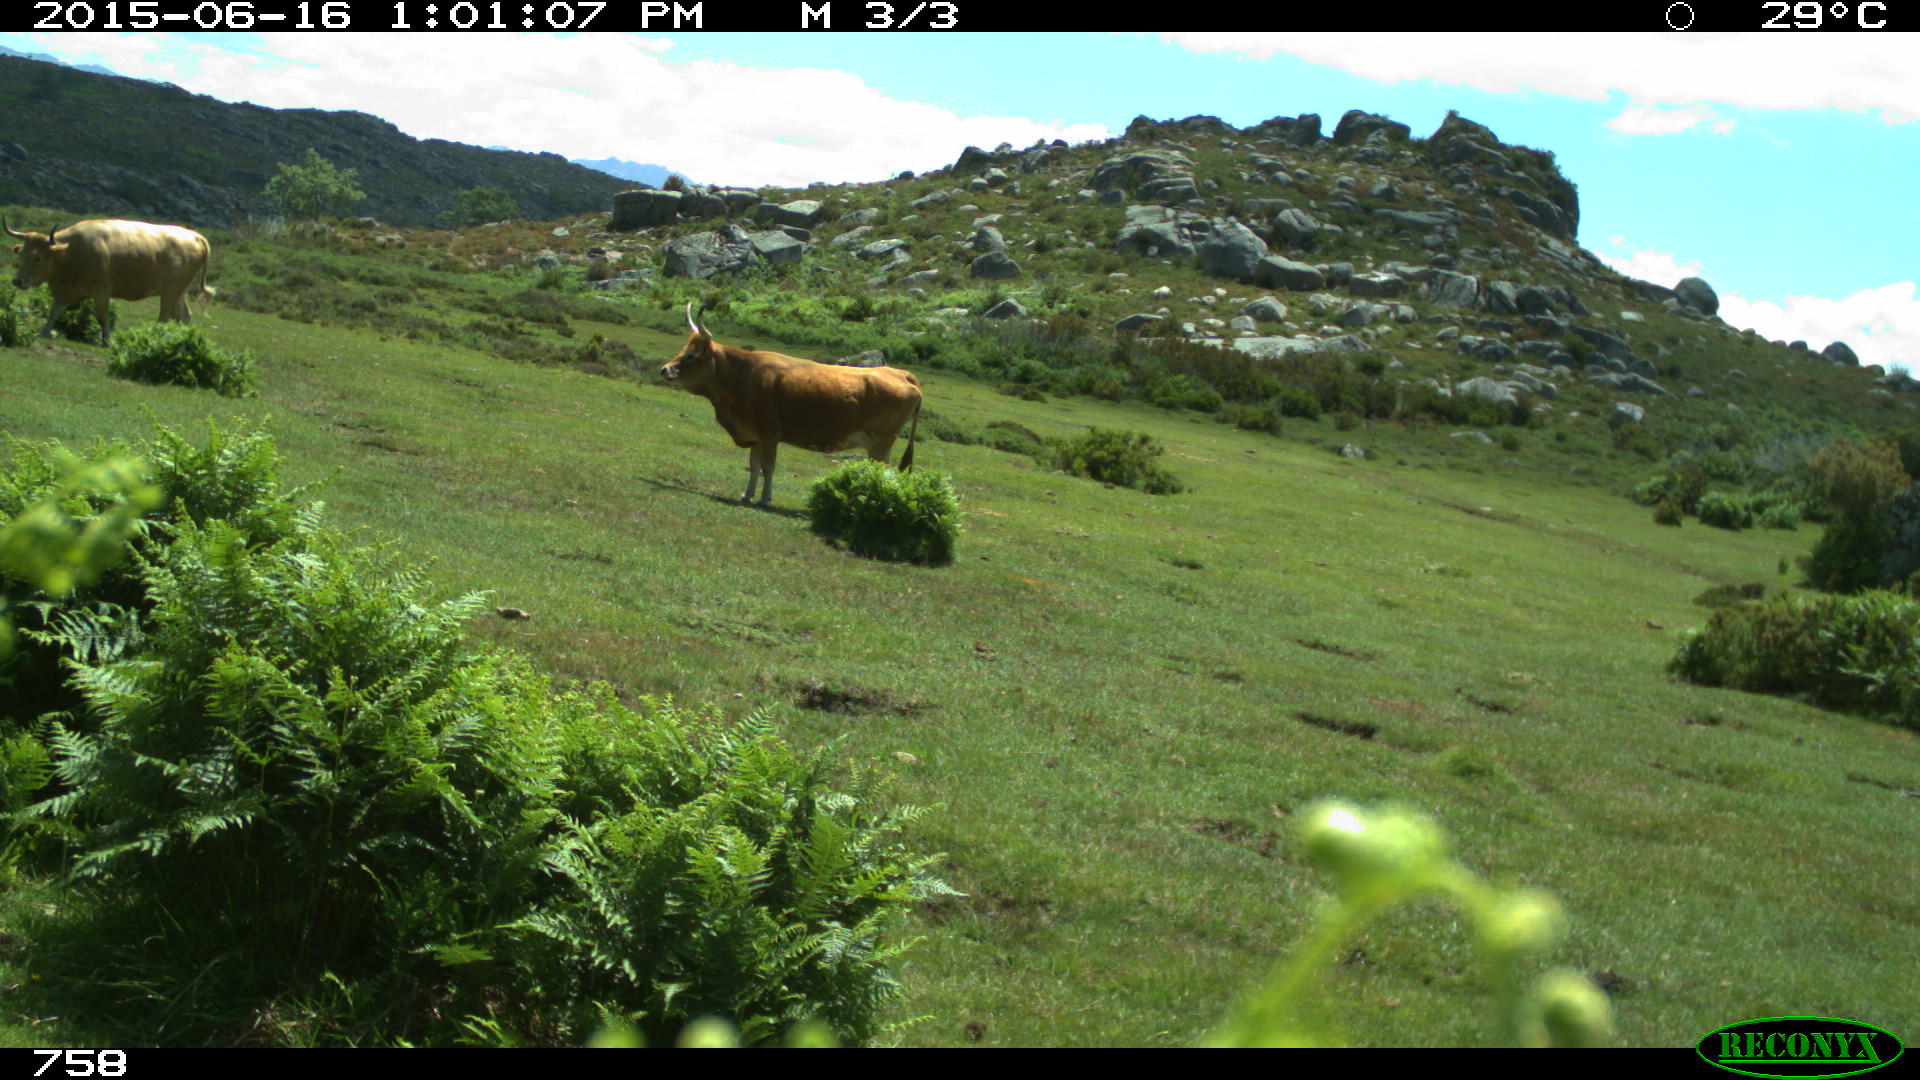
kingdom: Animalia
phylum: Chordata
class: Mammalia
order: Artiodactyla
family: Bovidae
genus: Bos
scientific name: Bos taurus
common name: Domesticated cattle
